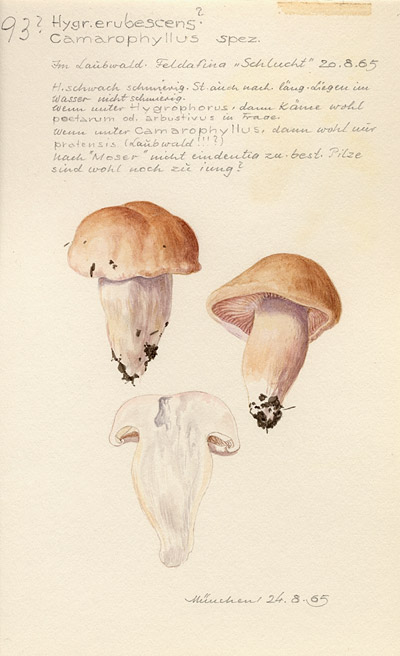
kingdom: Fungi
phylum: Basidiomycota
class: Agaricomycetes
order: Agaricales
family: Hygrophoraceae
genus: Hygrophorus
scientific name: Hygrophorus
